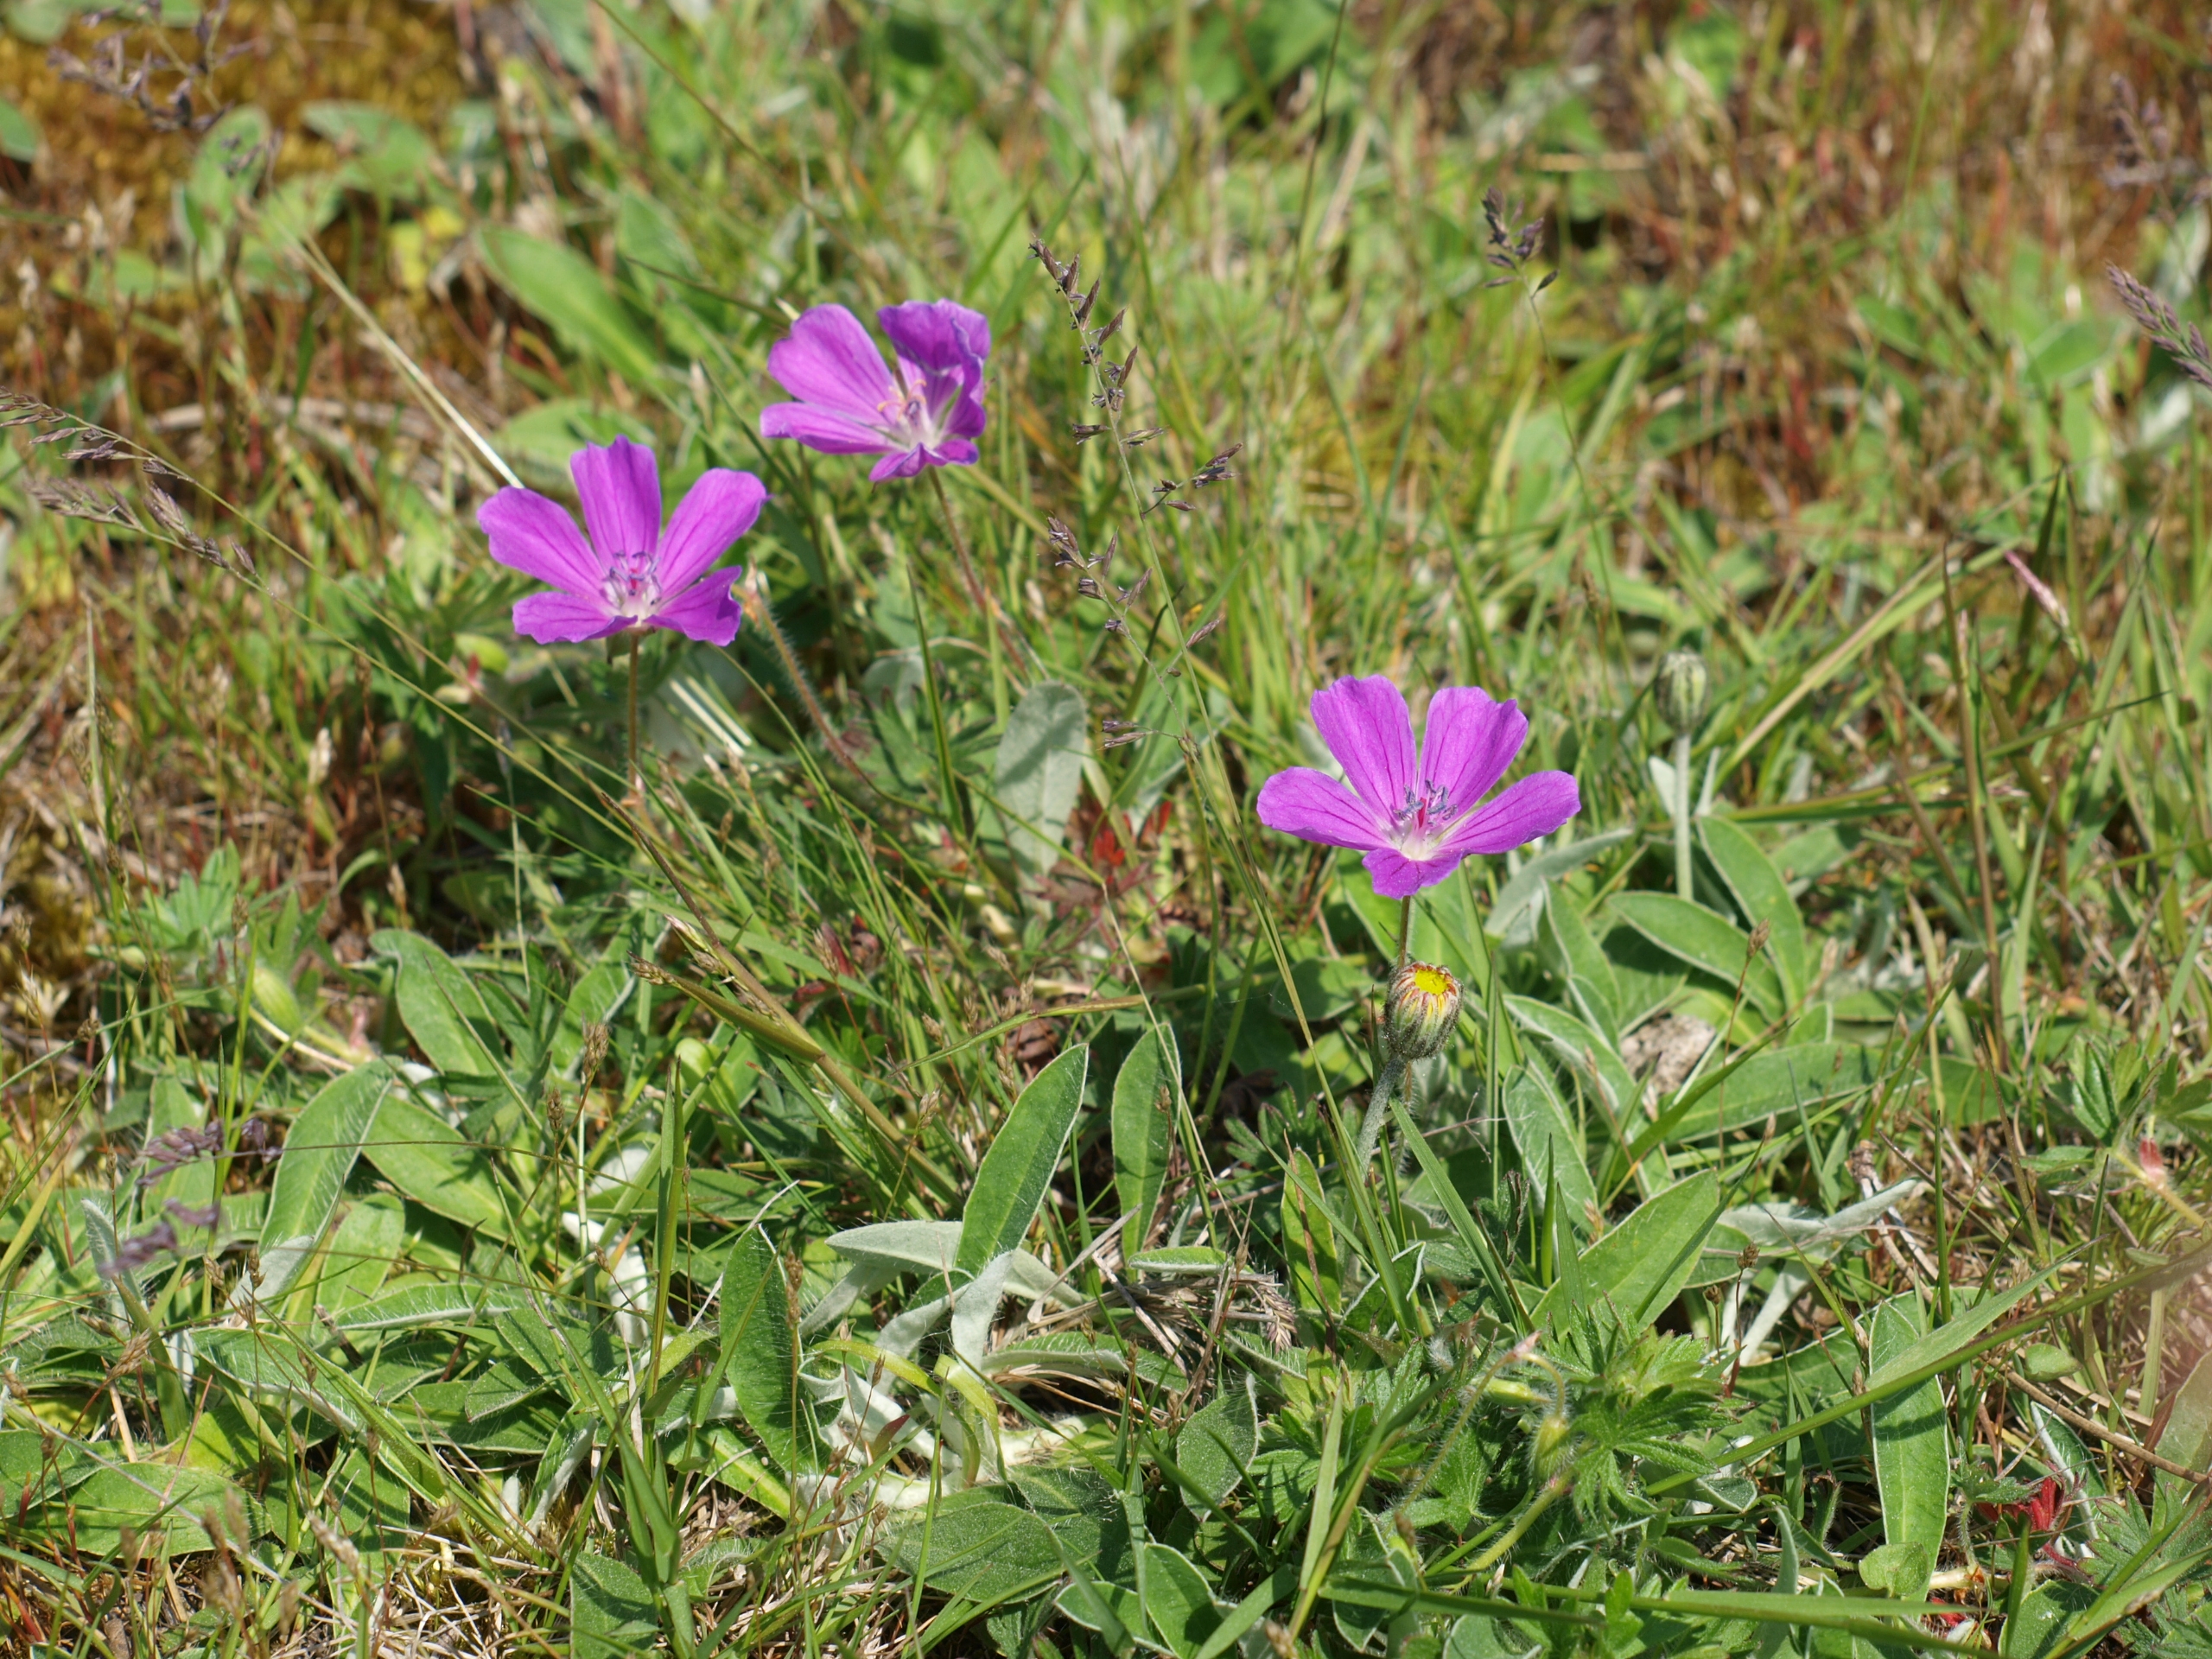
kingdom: Plantae
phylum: Tracheophyta
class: Magnoliopsida
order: Geraniales
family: Geraniaceae
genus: Geranium
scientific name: Geranium sanguineum
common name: Blodrød storkenæb
